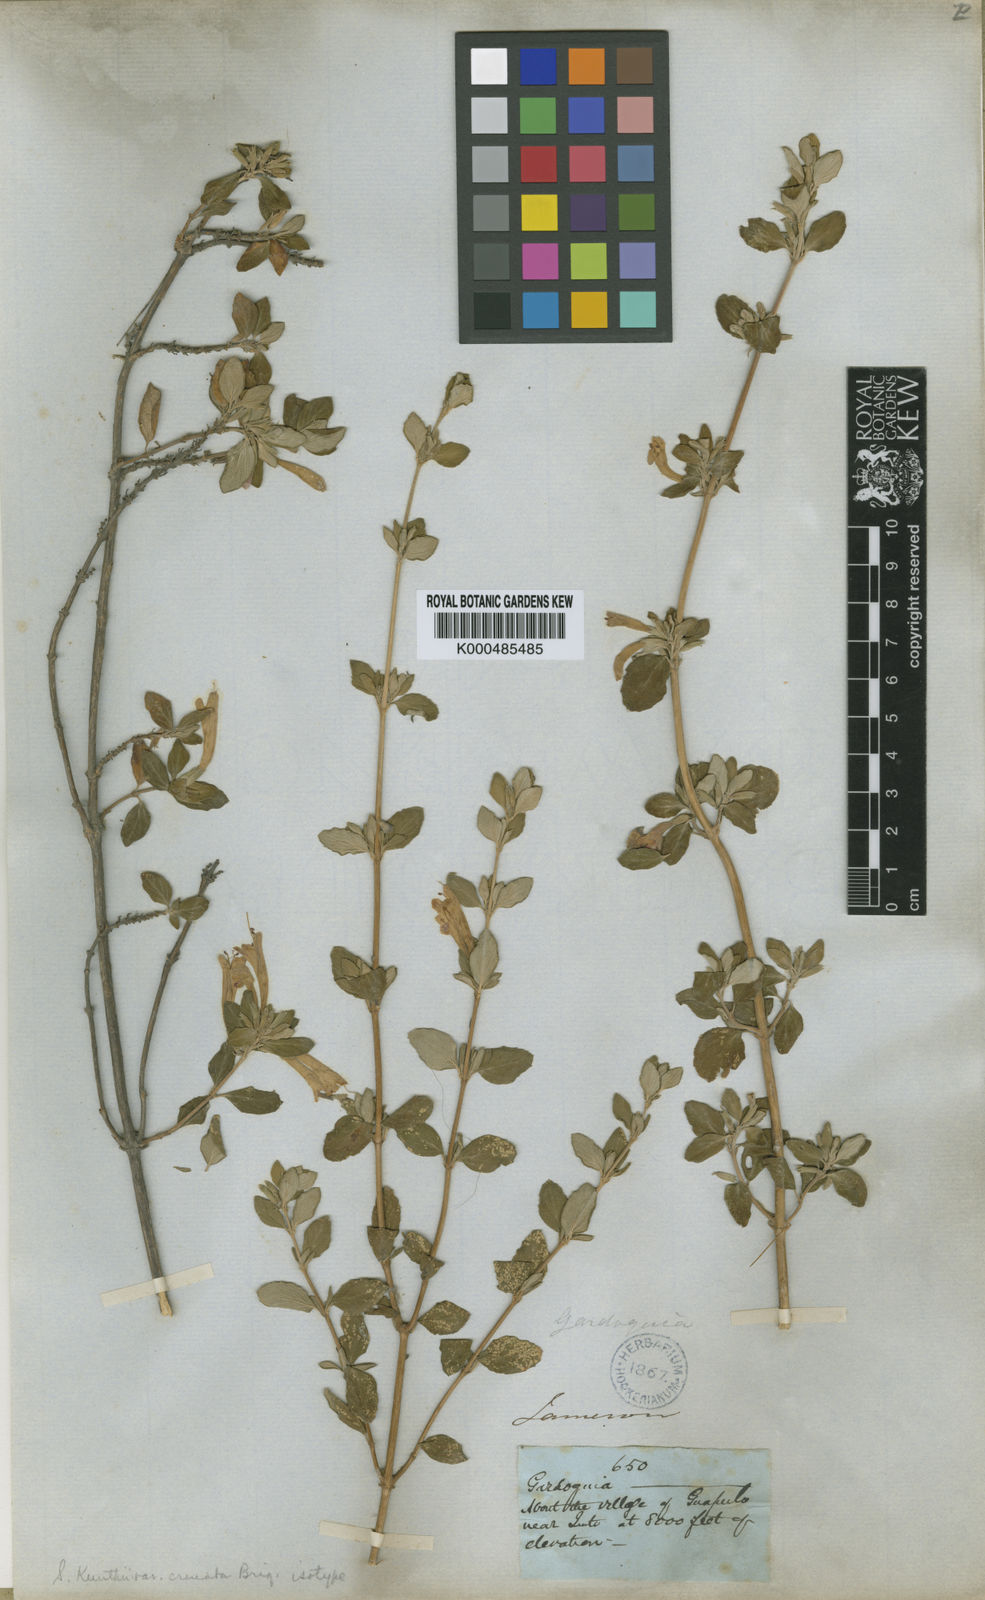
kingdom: Plantae
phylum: Tracheophyta
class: Magnoliopsida
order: Lamiales
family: Lamiaceae
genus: Clinopodium
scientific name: Clinopodium tomentosum
